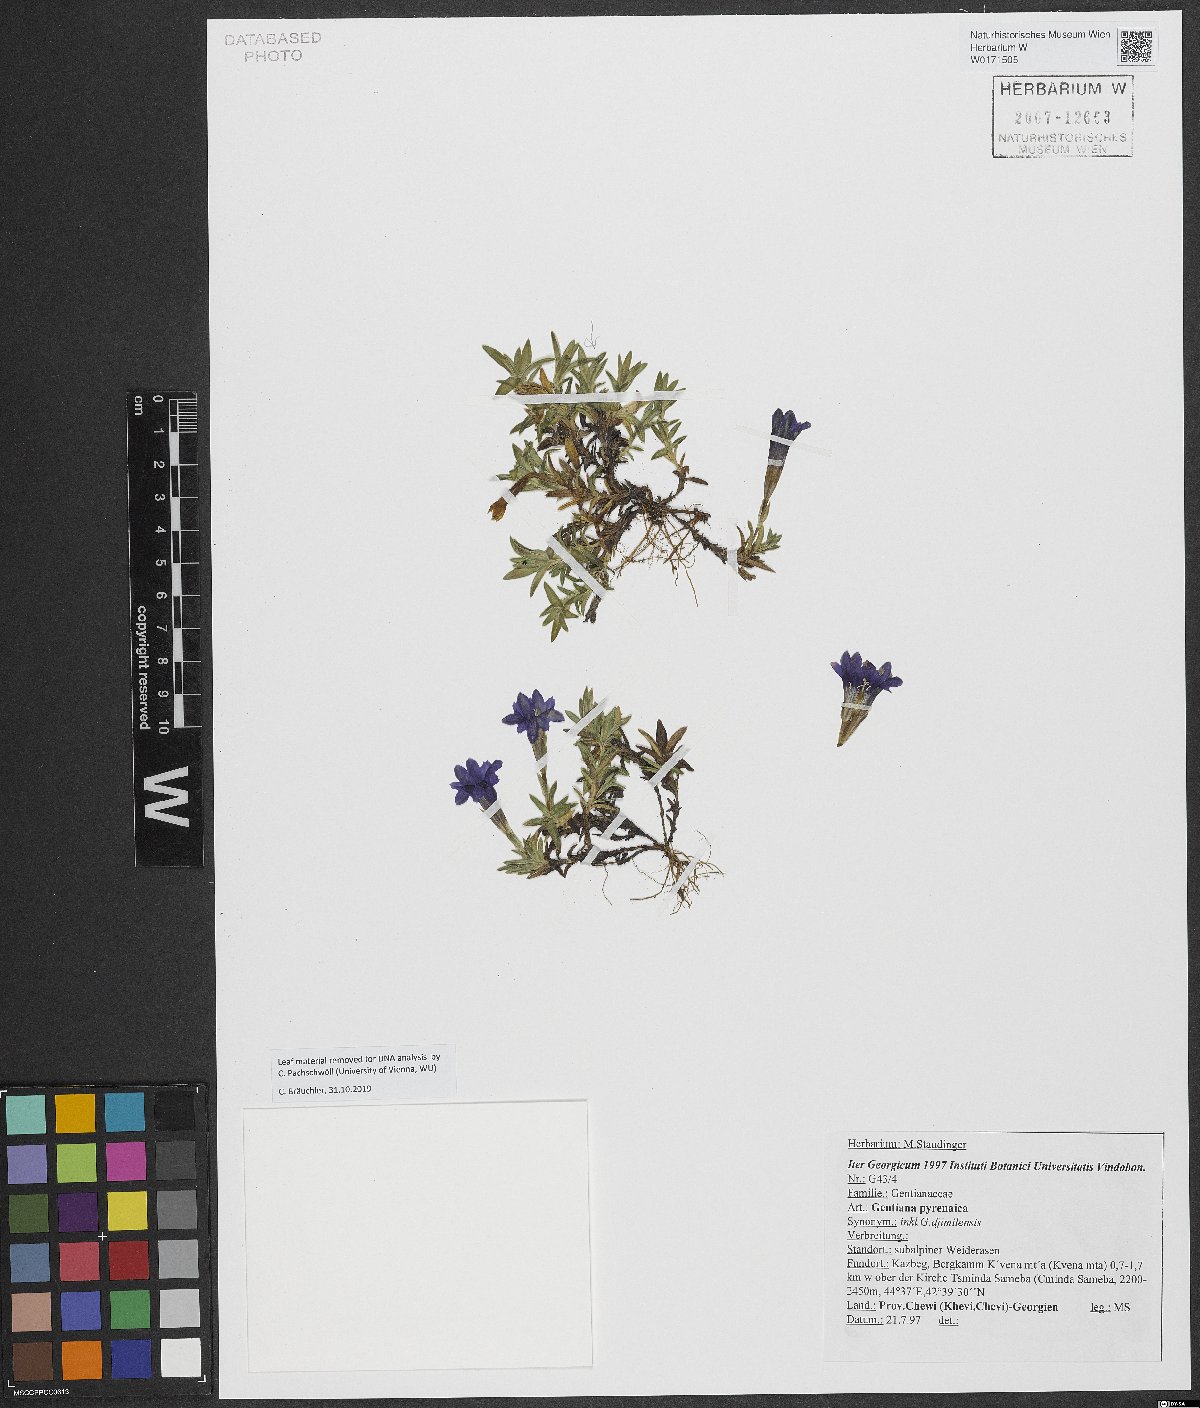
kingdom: Plantae
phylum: Tracheophyta
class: Magnoliopsida
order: Gentianales
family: Gentianaceae
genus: Gentiana
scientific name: Gentiana pyrenaica
